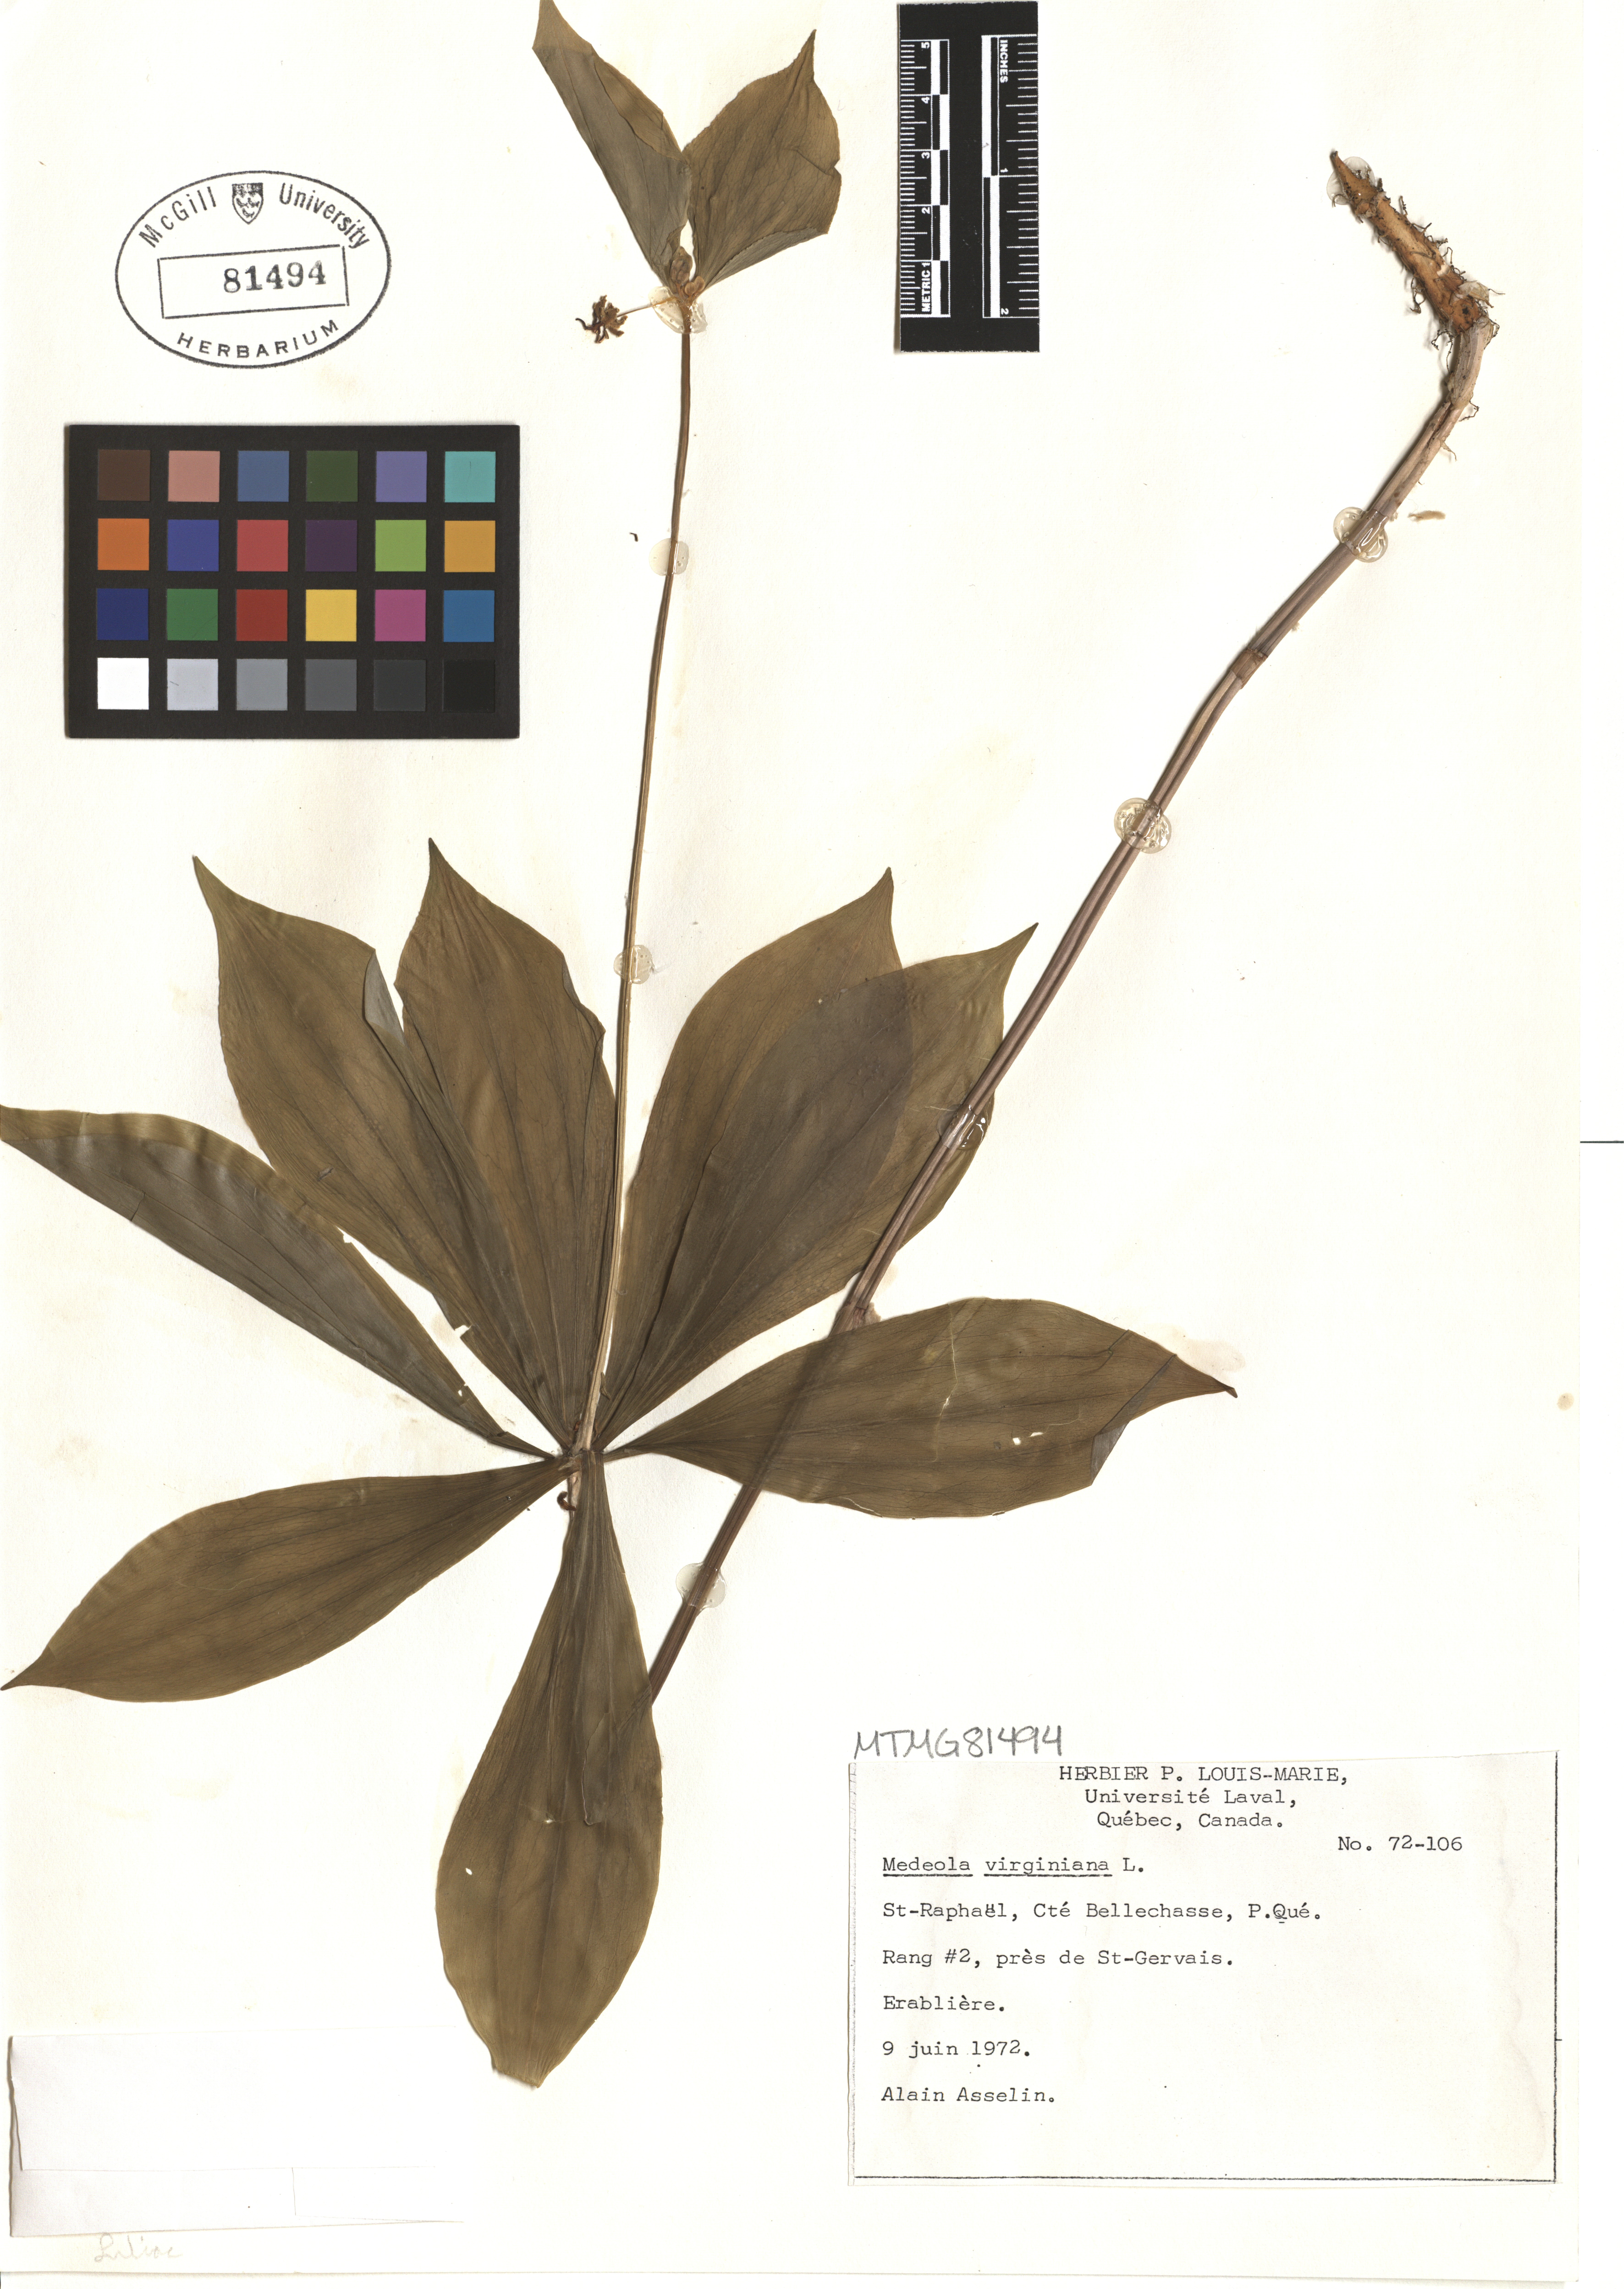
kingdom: Plantae
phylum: Tracheophyta
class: Liliopsida
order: Liliales
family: Liliaceae
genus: Medeola
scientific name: Medeola virginiana
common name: Indian cucumber-root
